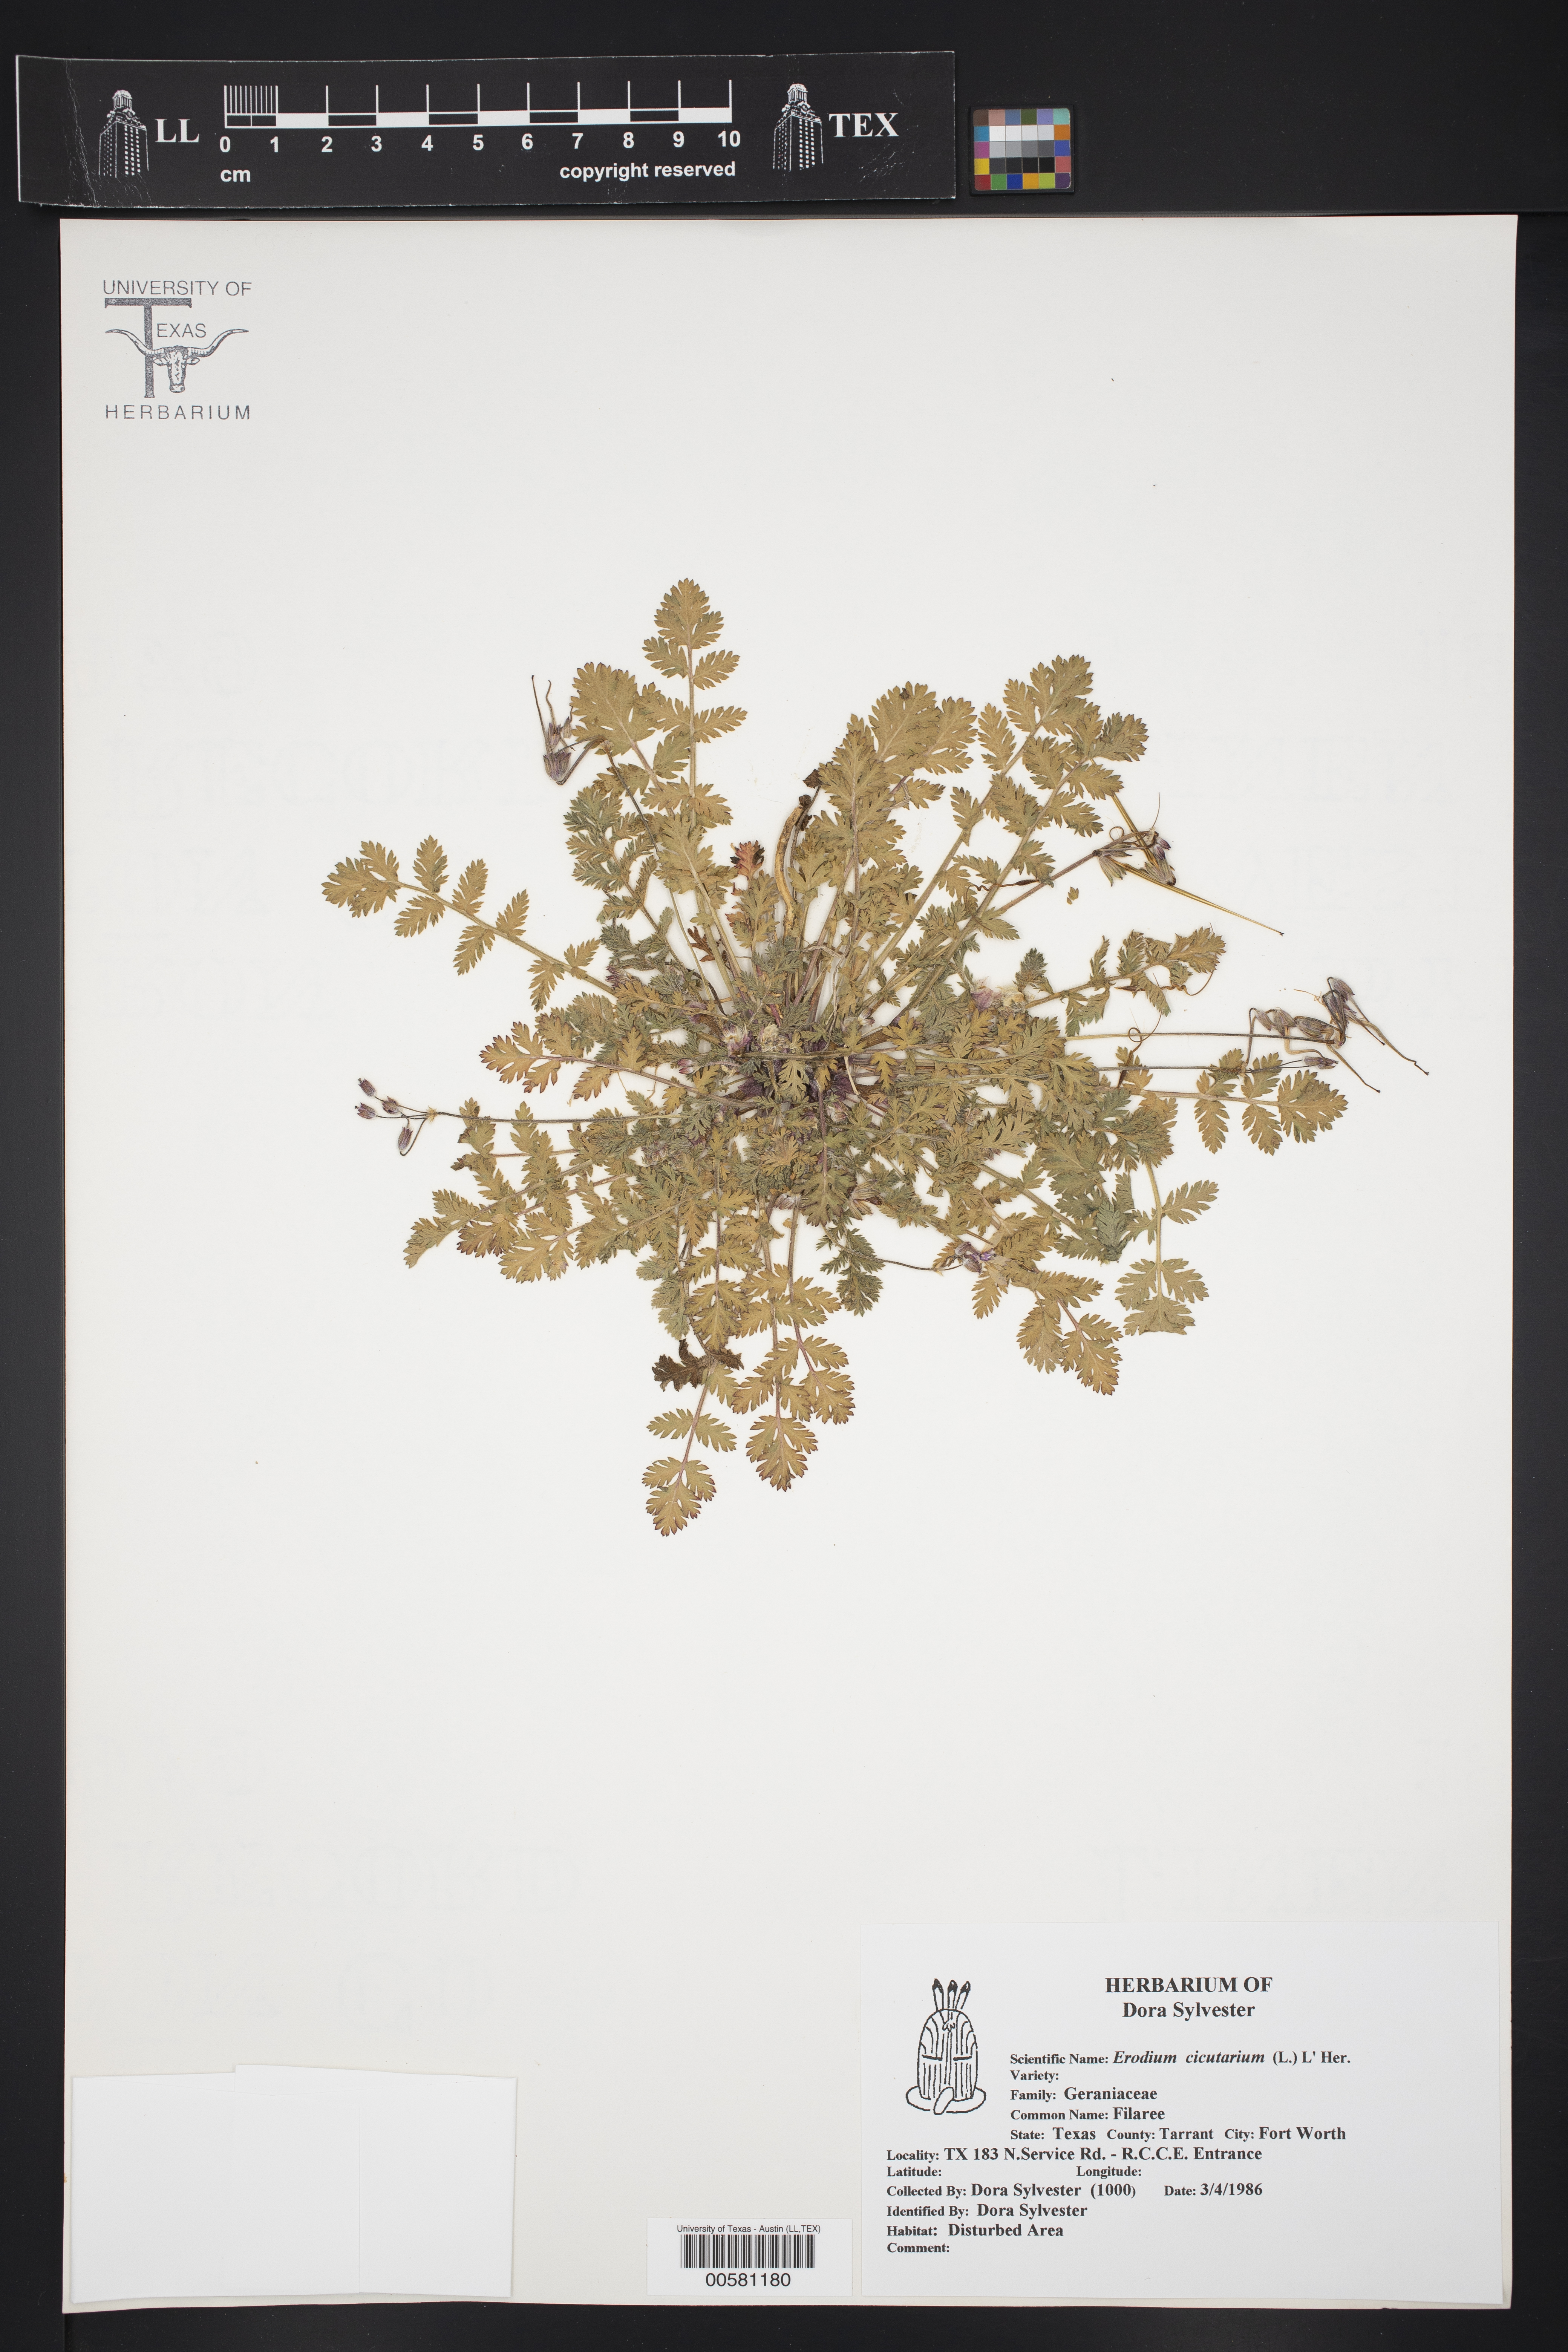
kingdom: Plantae
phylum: Tracheophyta
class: Magnoliopsida
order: Geraniales
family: Geraniaceae
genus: Erodium
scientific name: Erodium cicutarium
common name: Common stork's-bill
